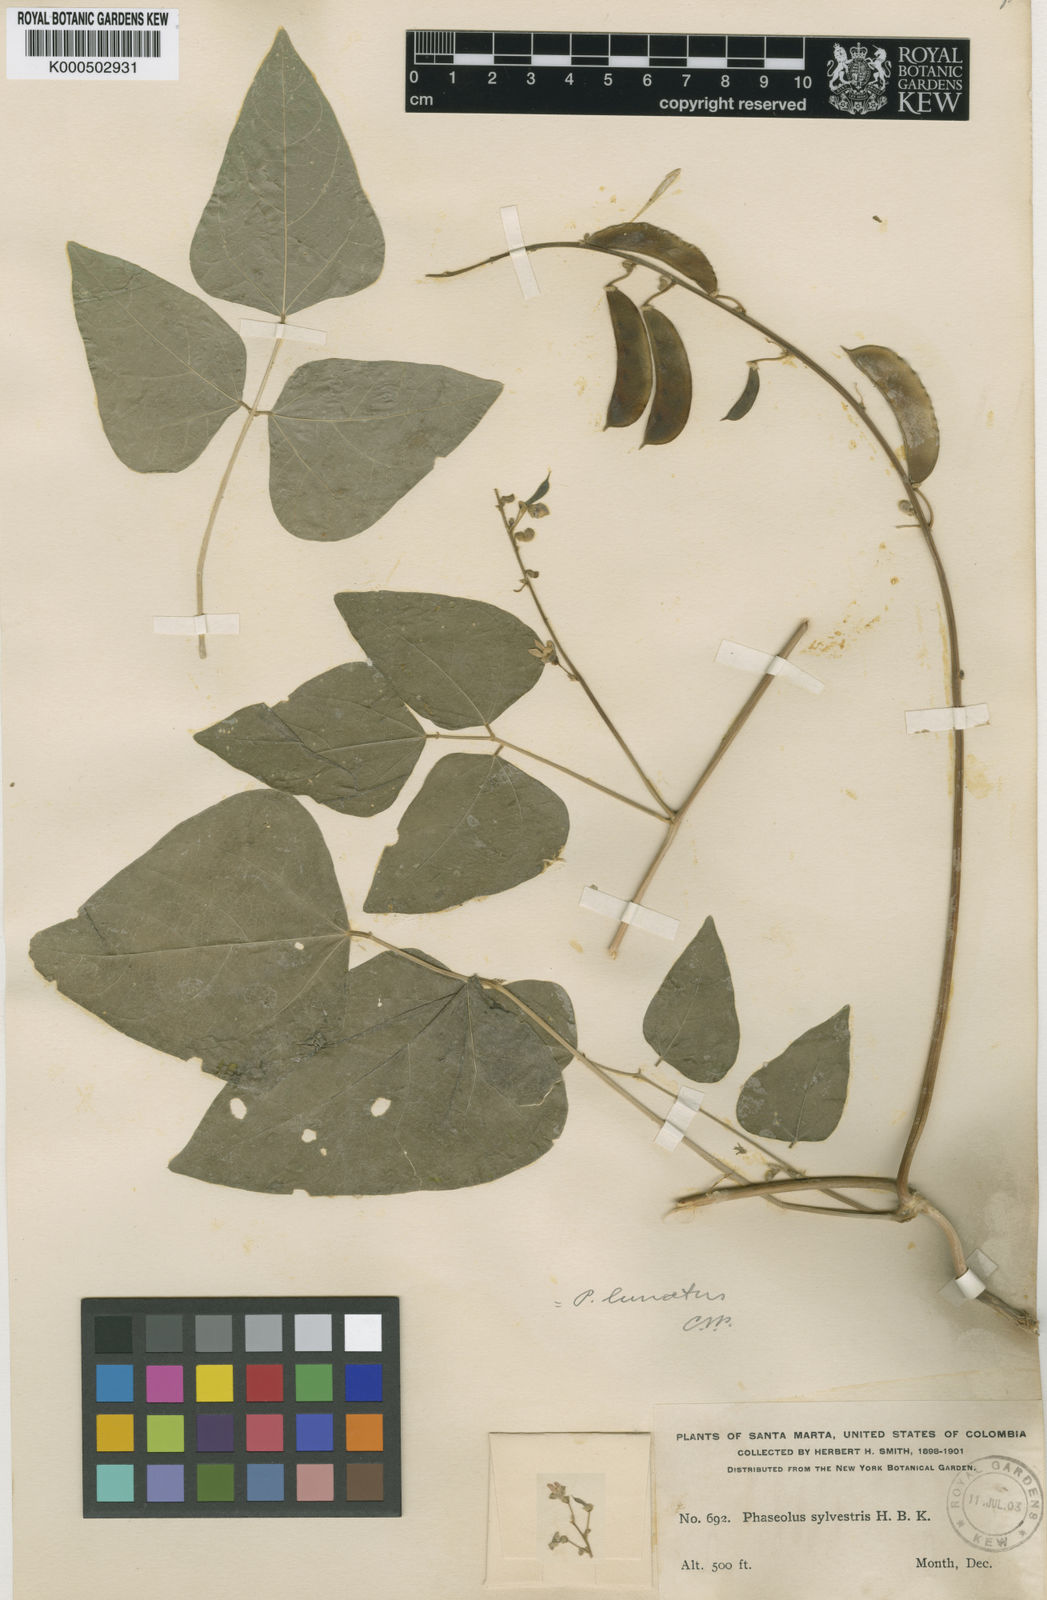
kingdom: Plantae
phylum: Tracheophyta
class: Magnoliopsida
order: Fabales
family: Fabaceae
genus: Phaseolus
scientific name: Phaseolus lunatus
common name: Sieva bean
